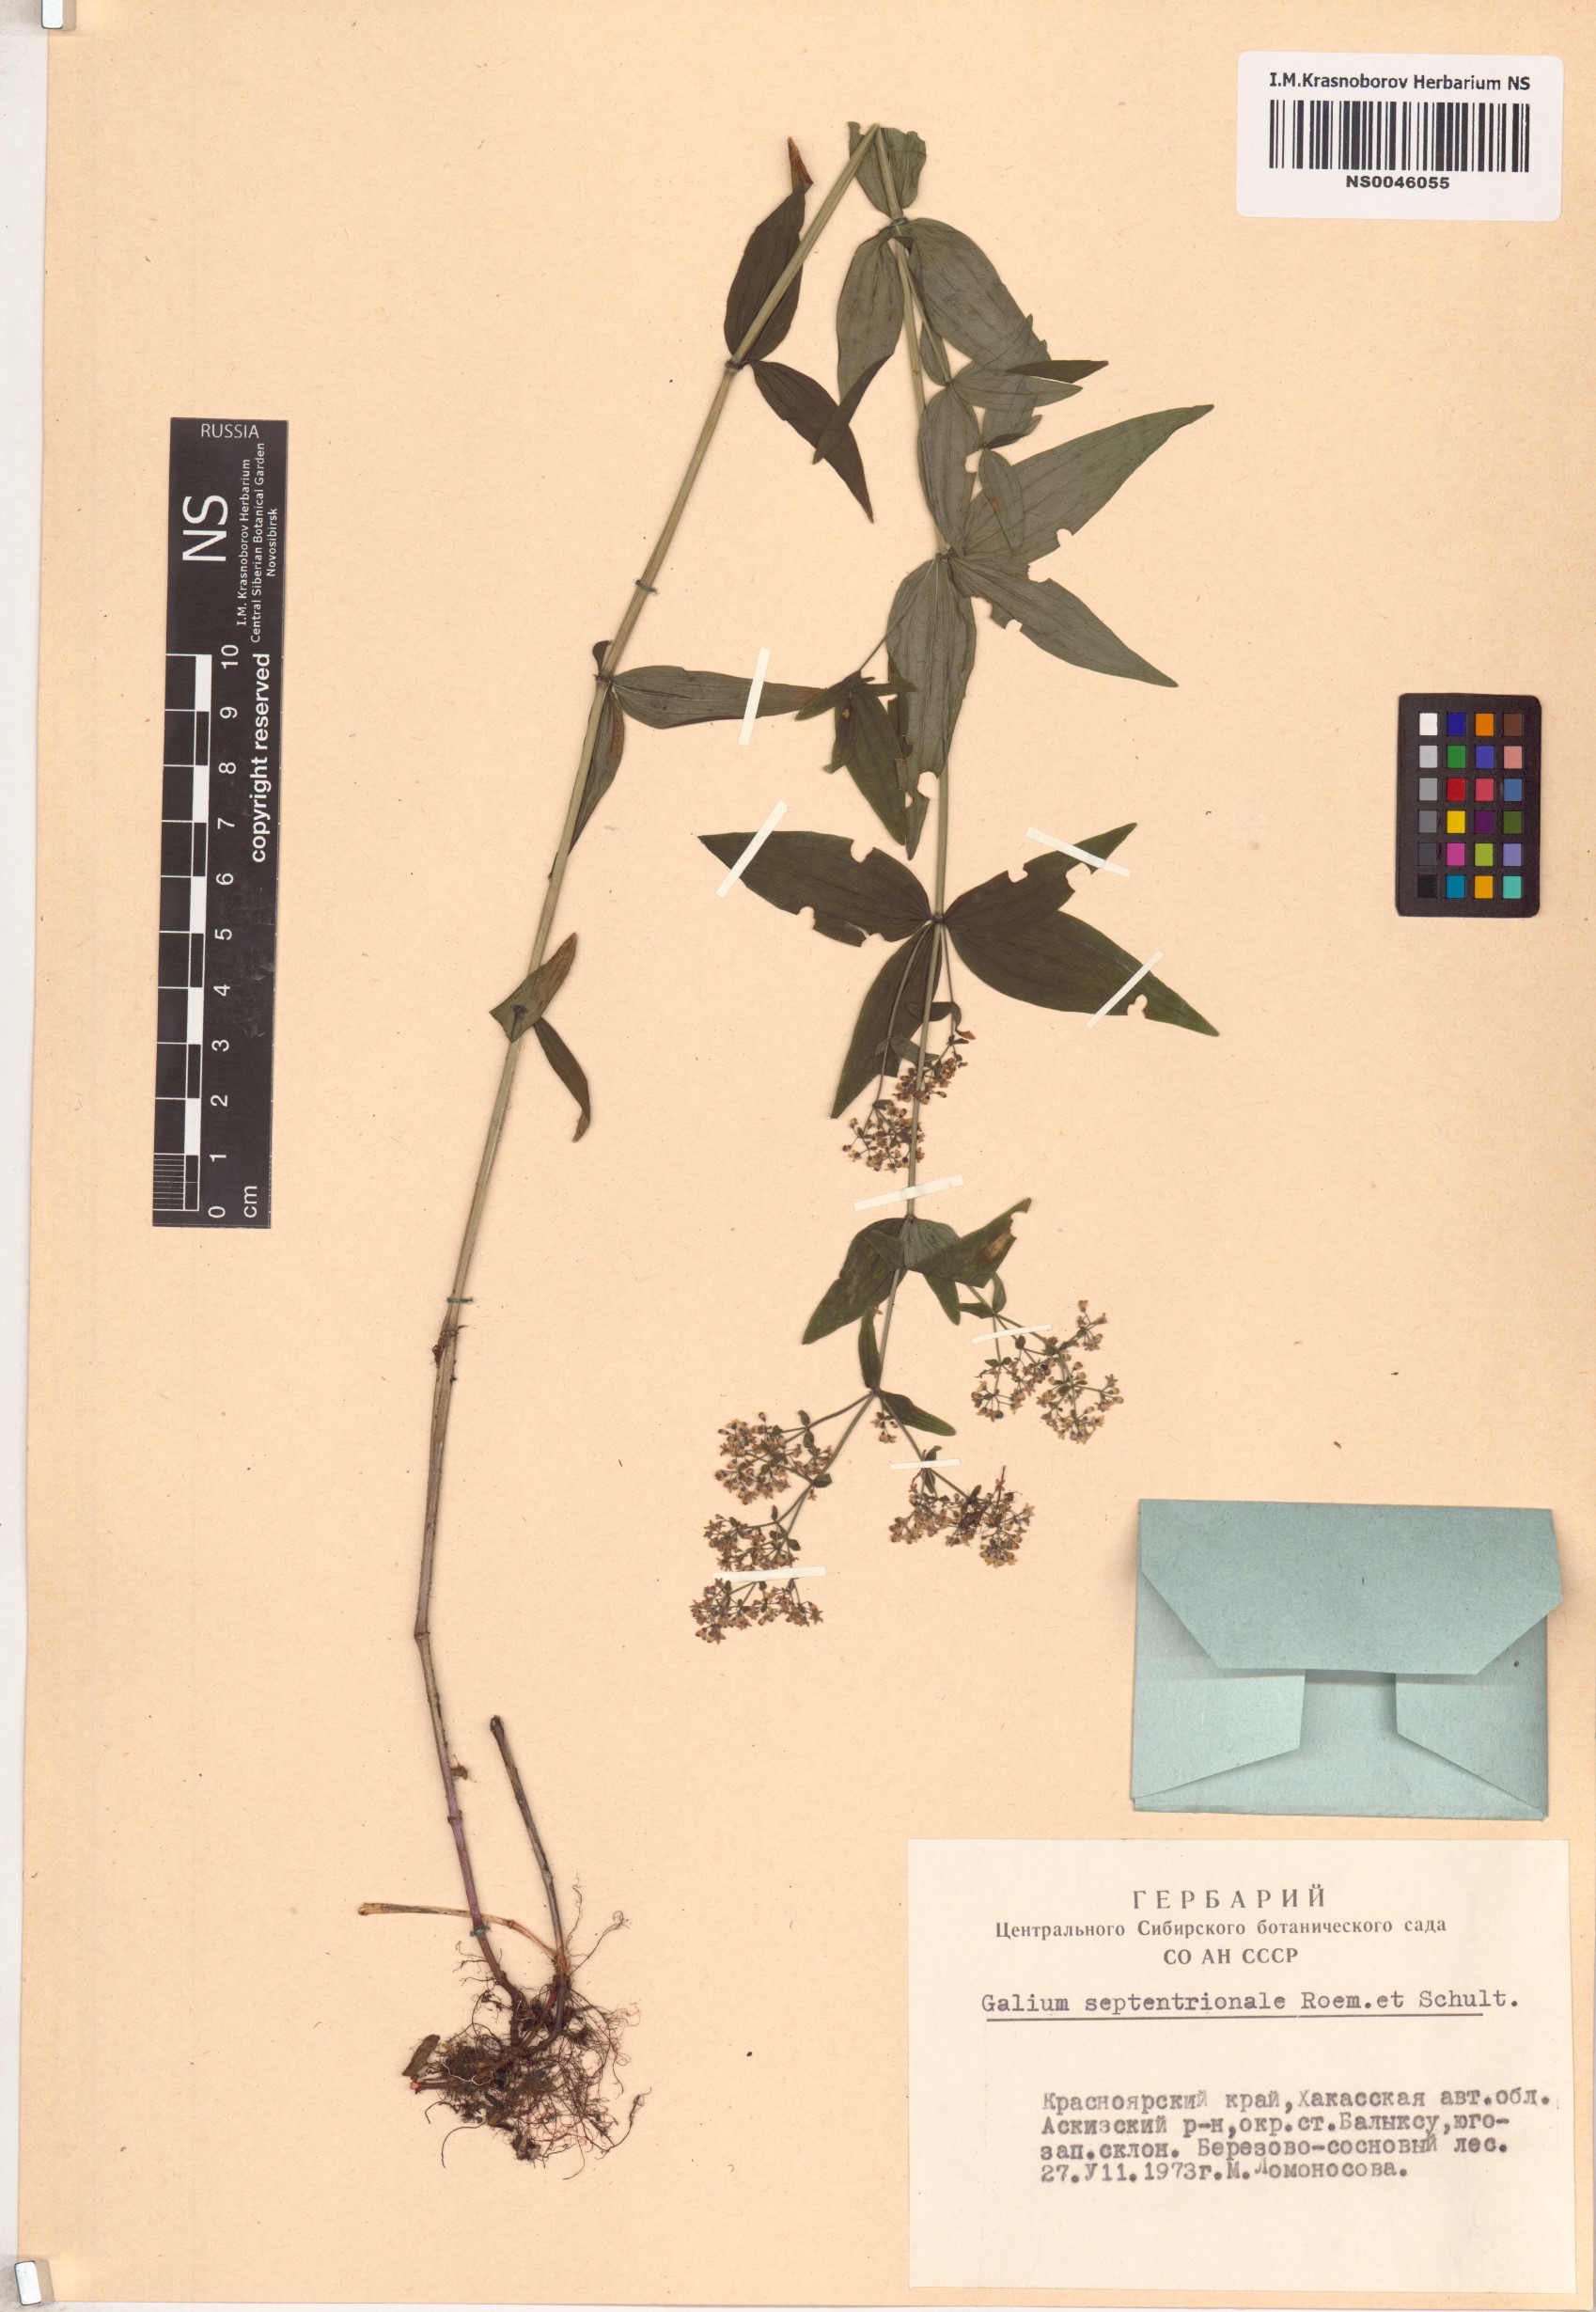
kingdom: Plantae
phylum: Tracheophyta
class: Magnoliopsida
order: Gentianales
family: Rubiaceae
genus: Galium
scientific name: Galium boreale
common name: Northern bedstraw
